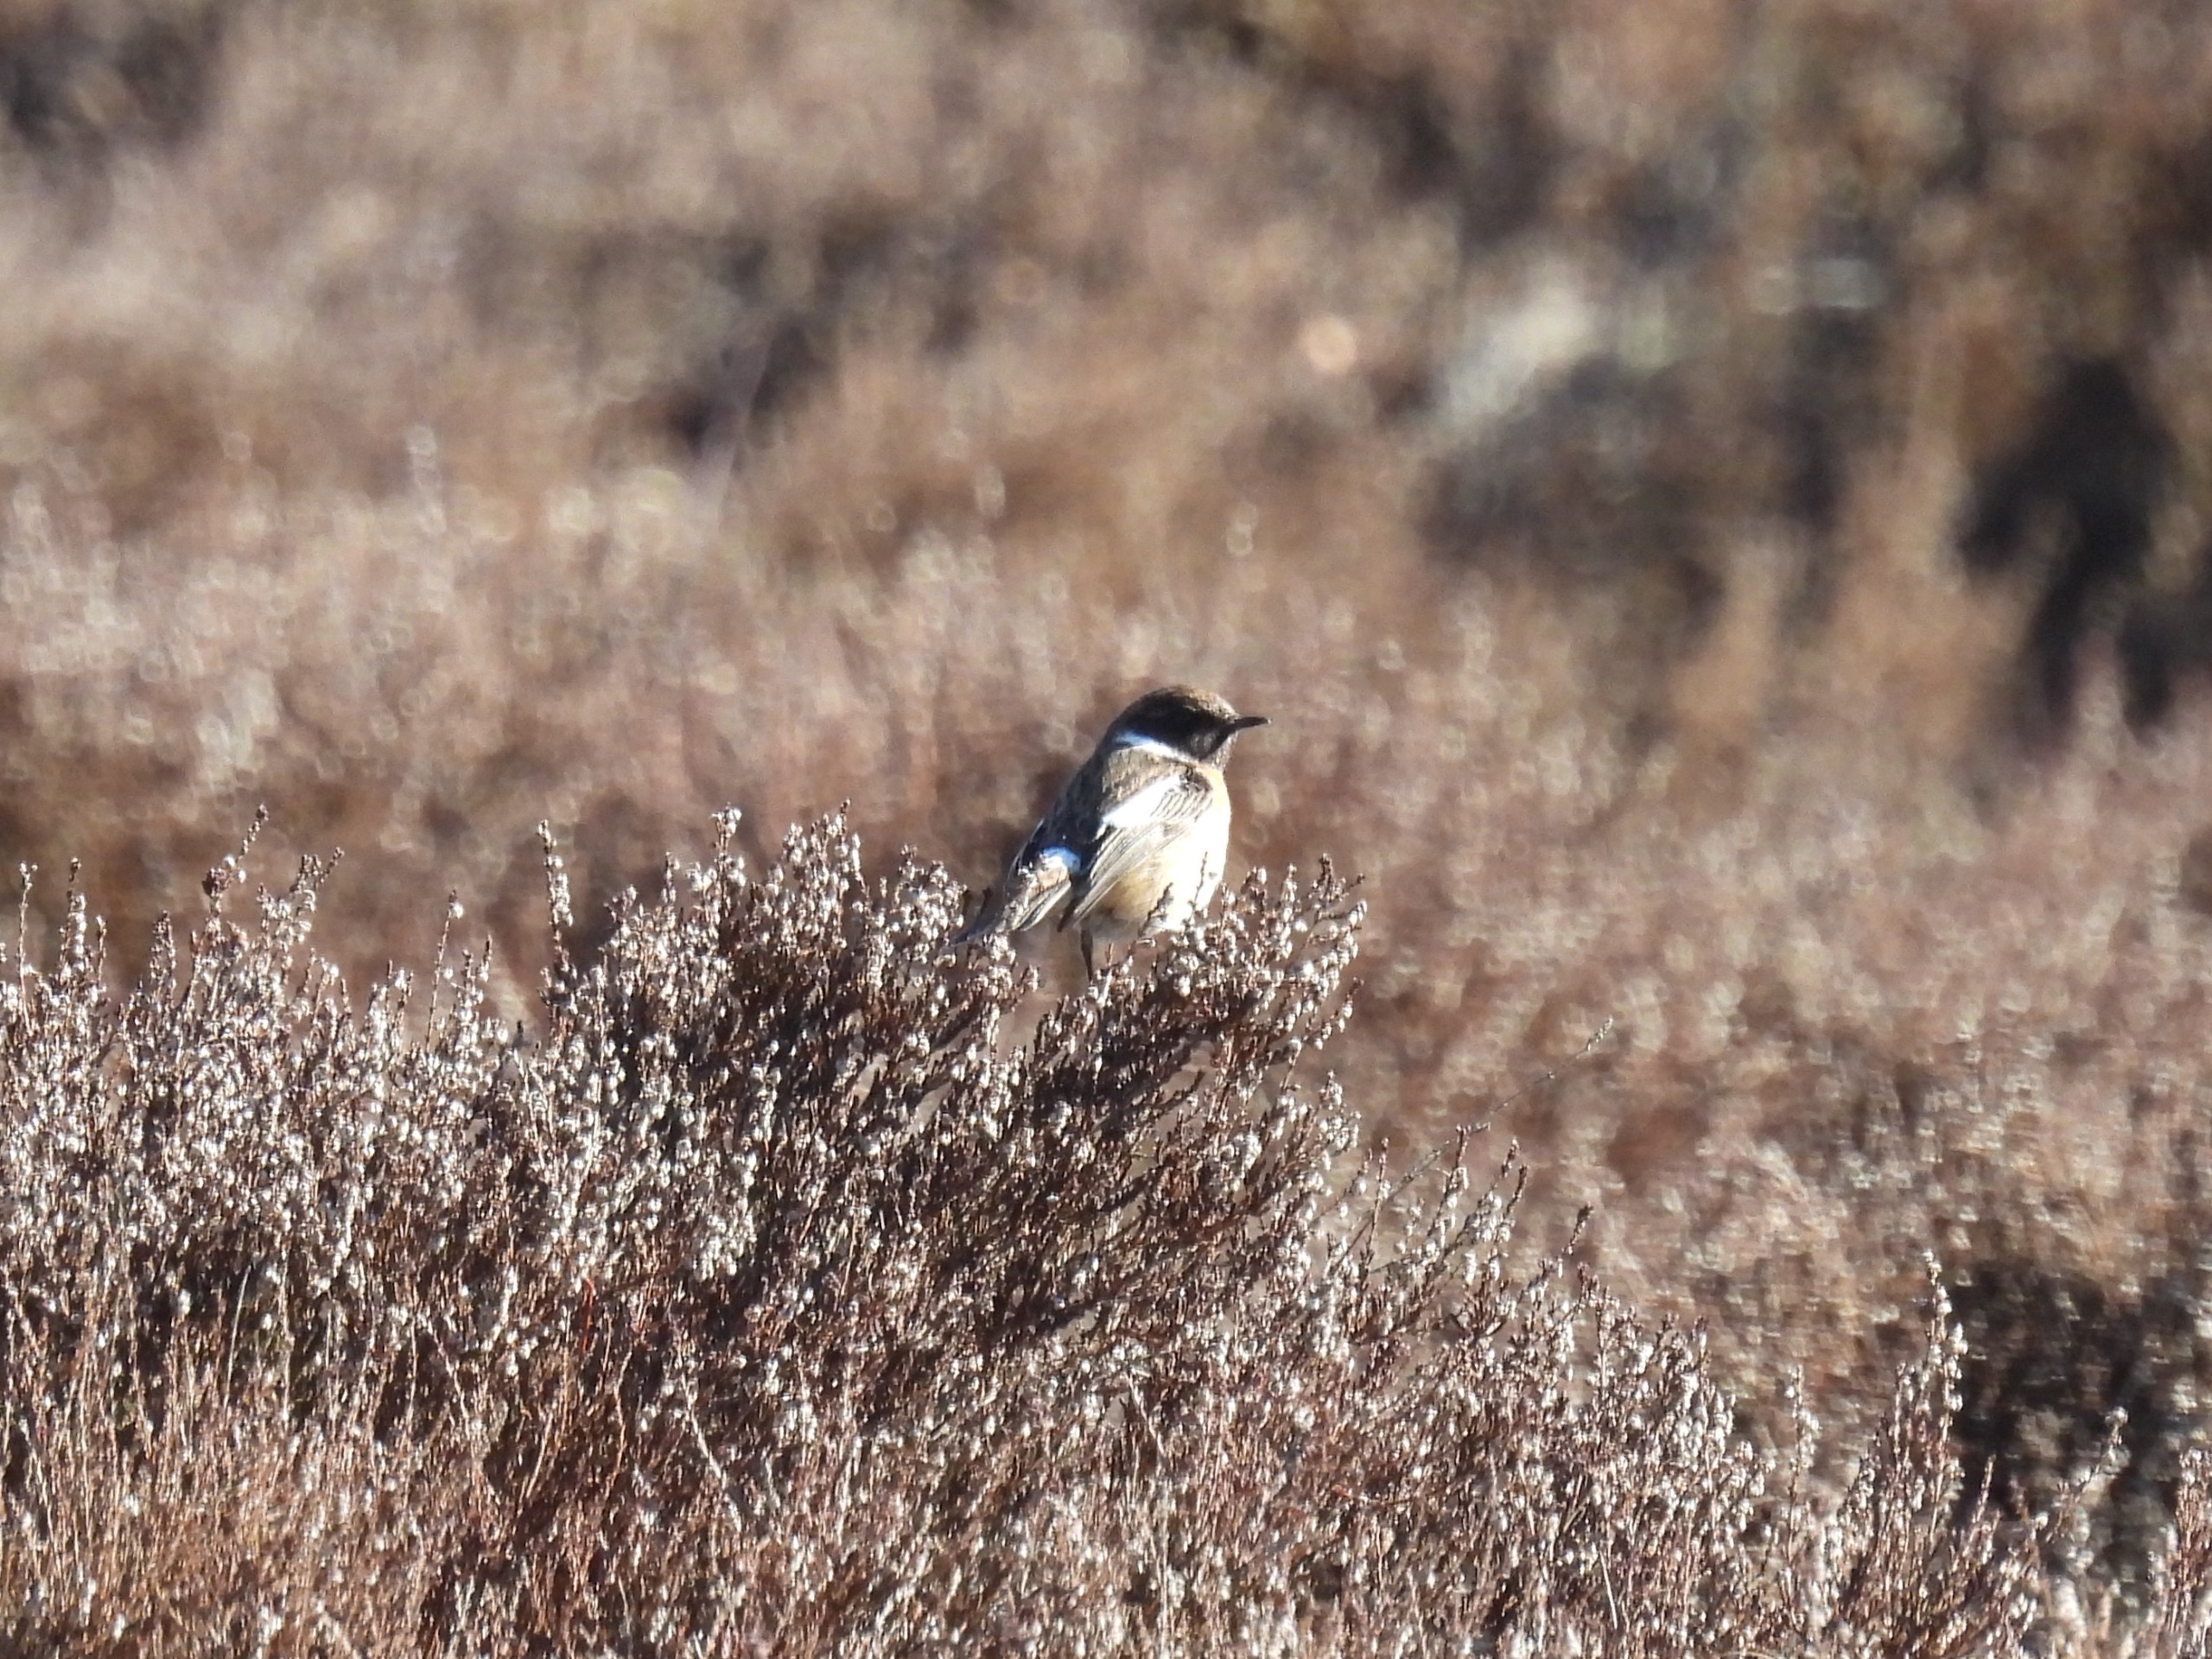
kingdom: Animalia
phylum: Chordata
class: Aves
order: Passeriformes
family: Muscicapidae
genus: Saxicola
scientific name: Saxicola rubicola
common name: Sortstrubet bynkefugl
